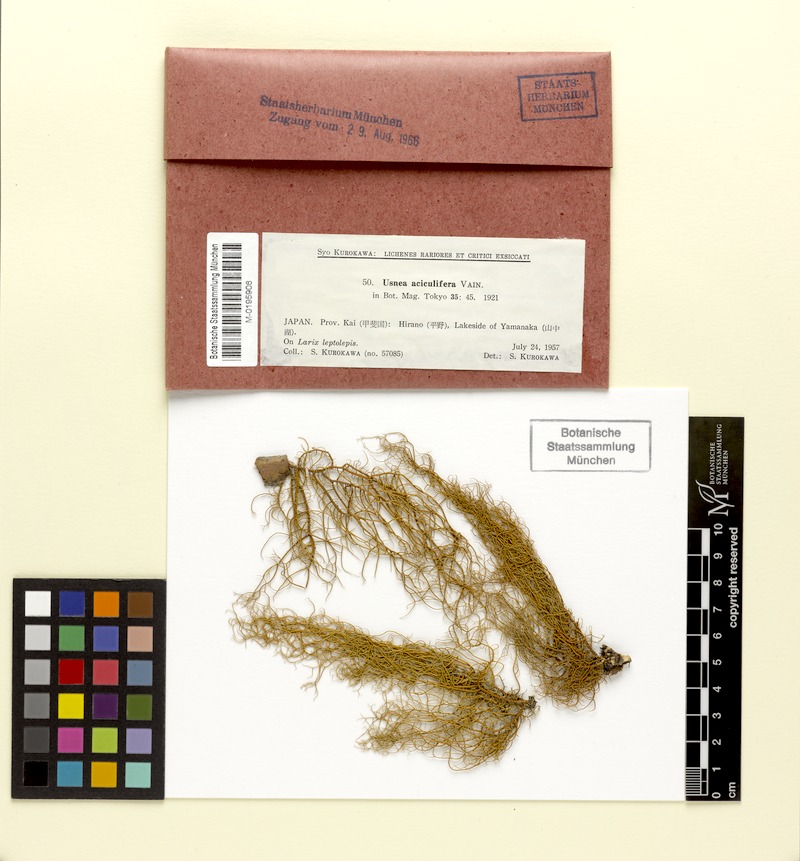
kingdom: Fungi
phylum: Ascomycota
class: Lecanoromycetes
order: Lecanorales
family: Parmeliaceae
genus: Usnea
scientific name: Usnea aciculifera
